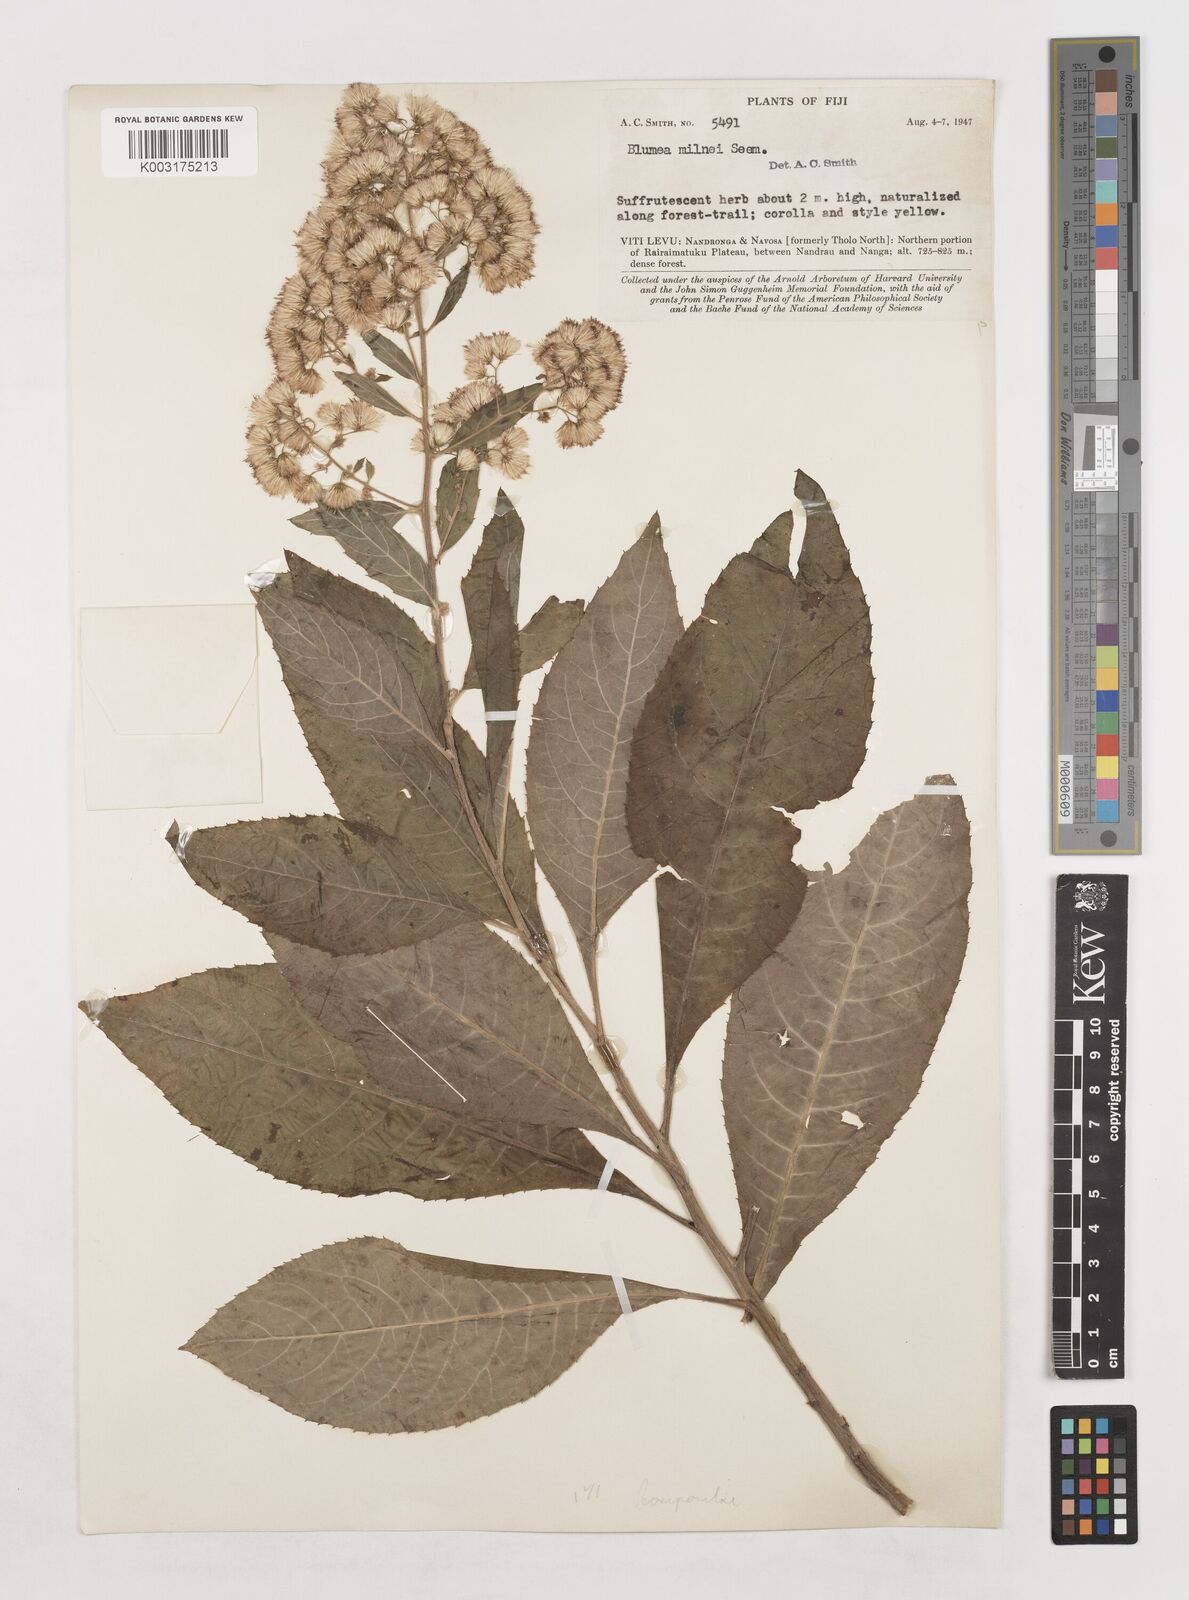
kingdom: Plantae
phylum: Tracheophyta
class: Magnoliopsida
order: Asterales
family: Asteraceae
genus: Blumea
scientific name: Blumea milnei
